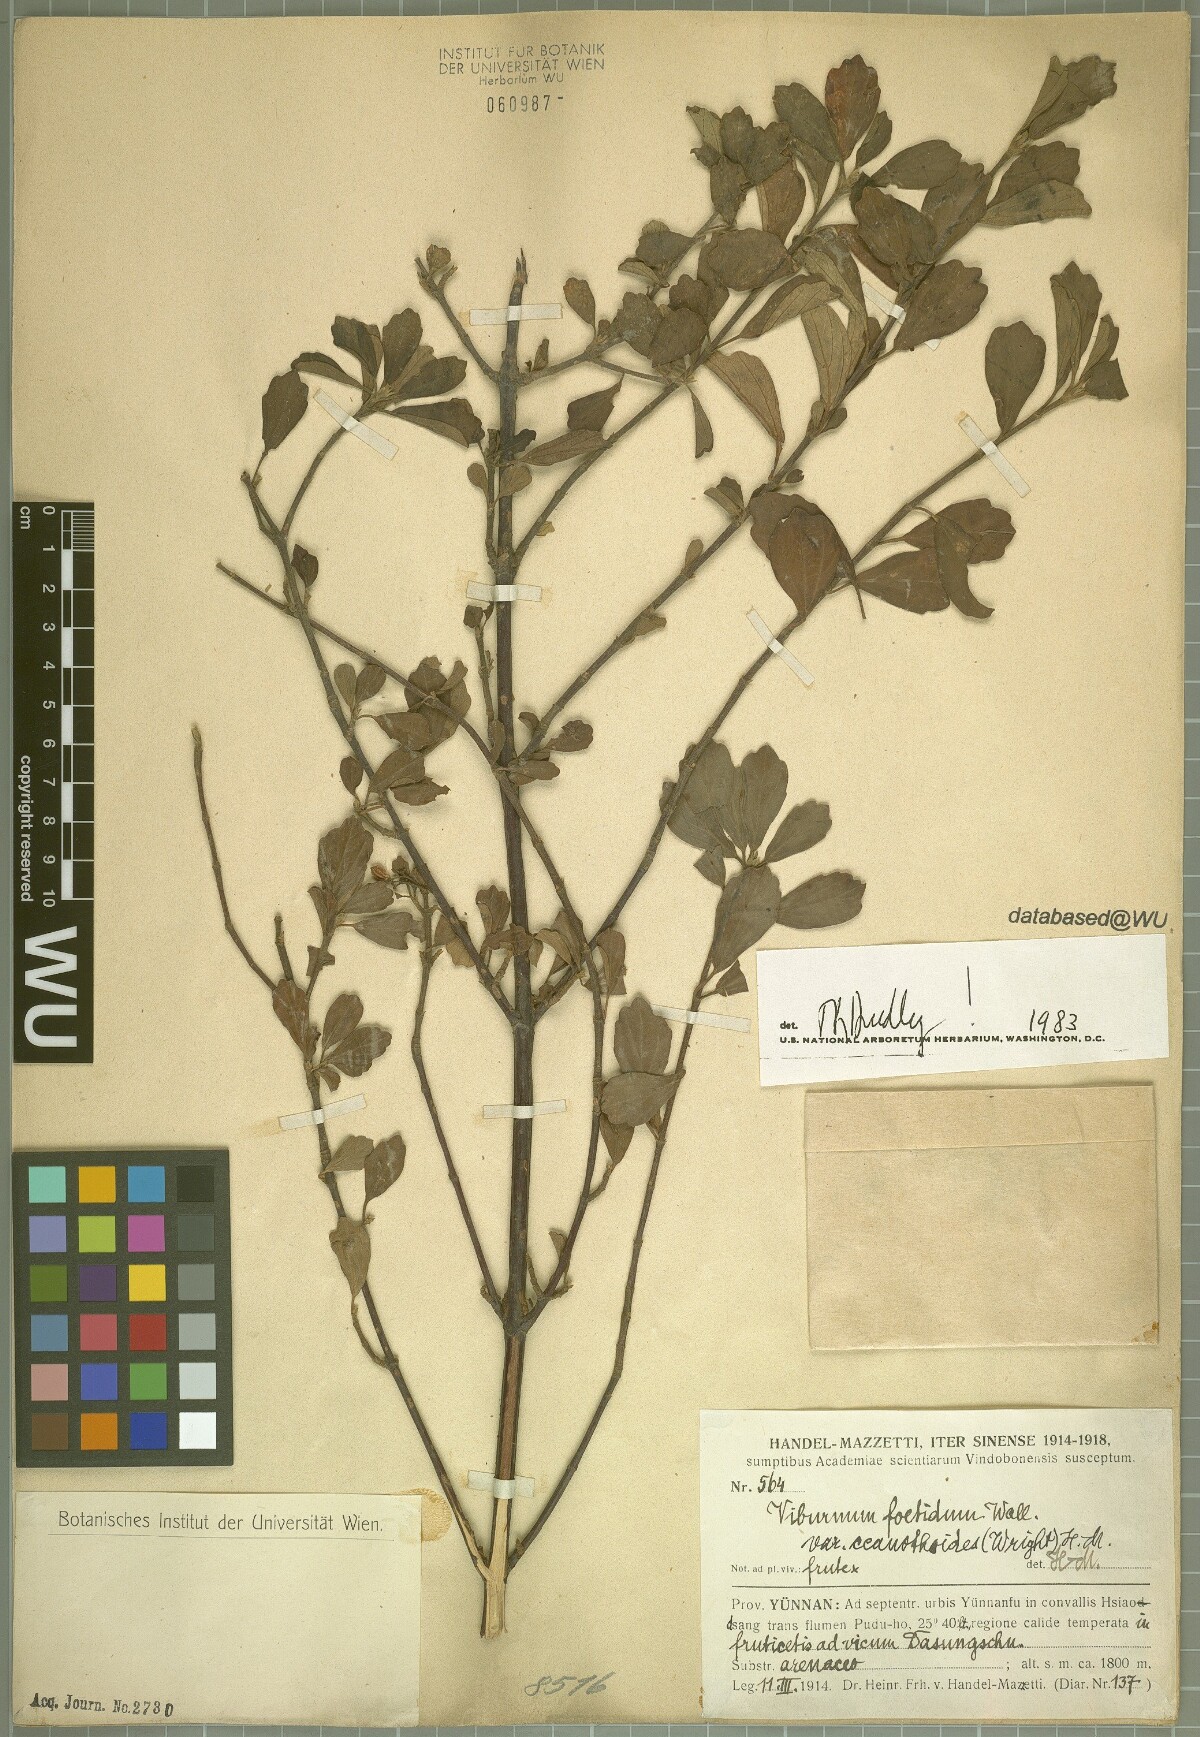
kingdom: Plantae
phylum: Tracheophyta
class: Magnoliopsida
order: Dipsacales
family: Viburnaceae
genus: Viburnum
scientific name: Viburnum foetidum
